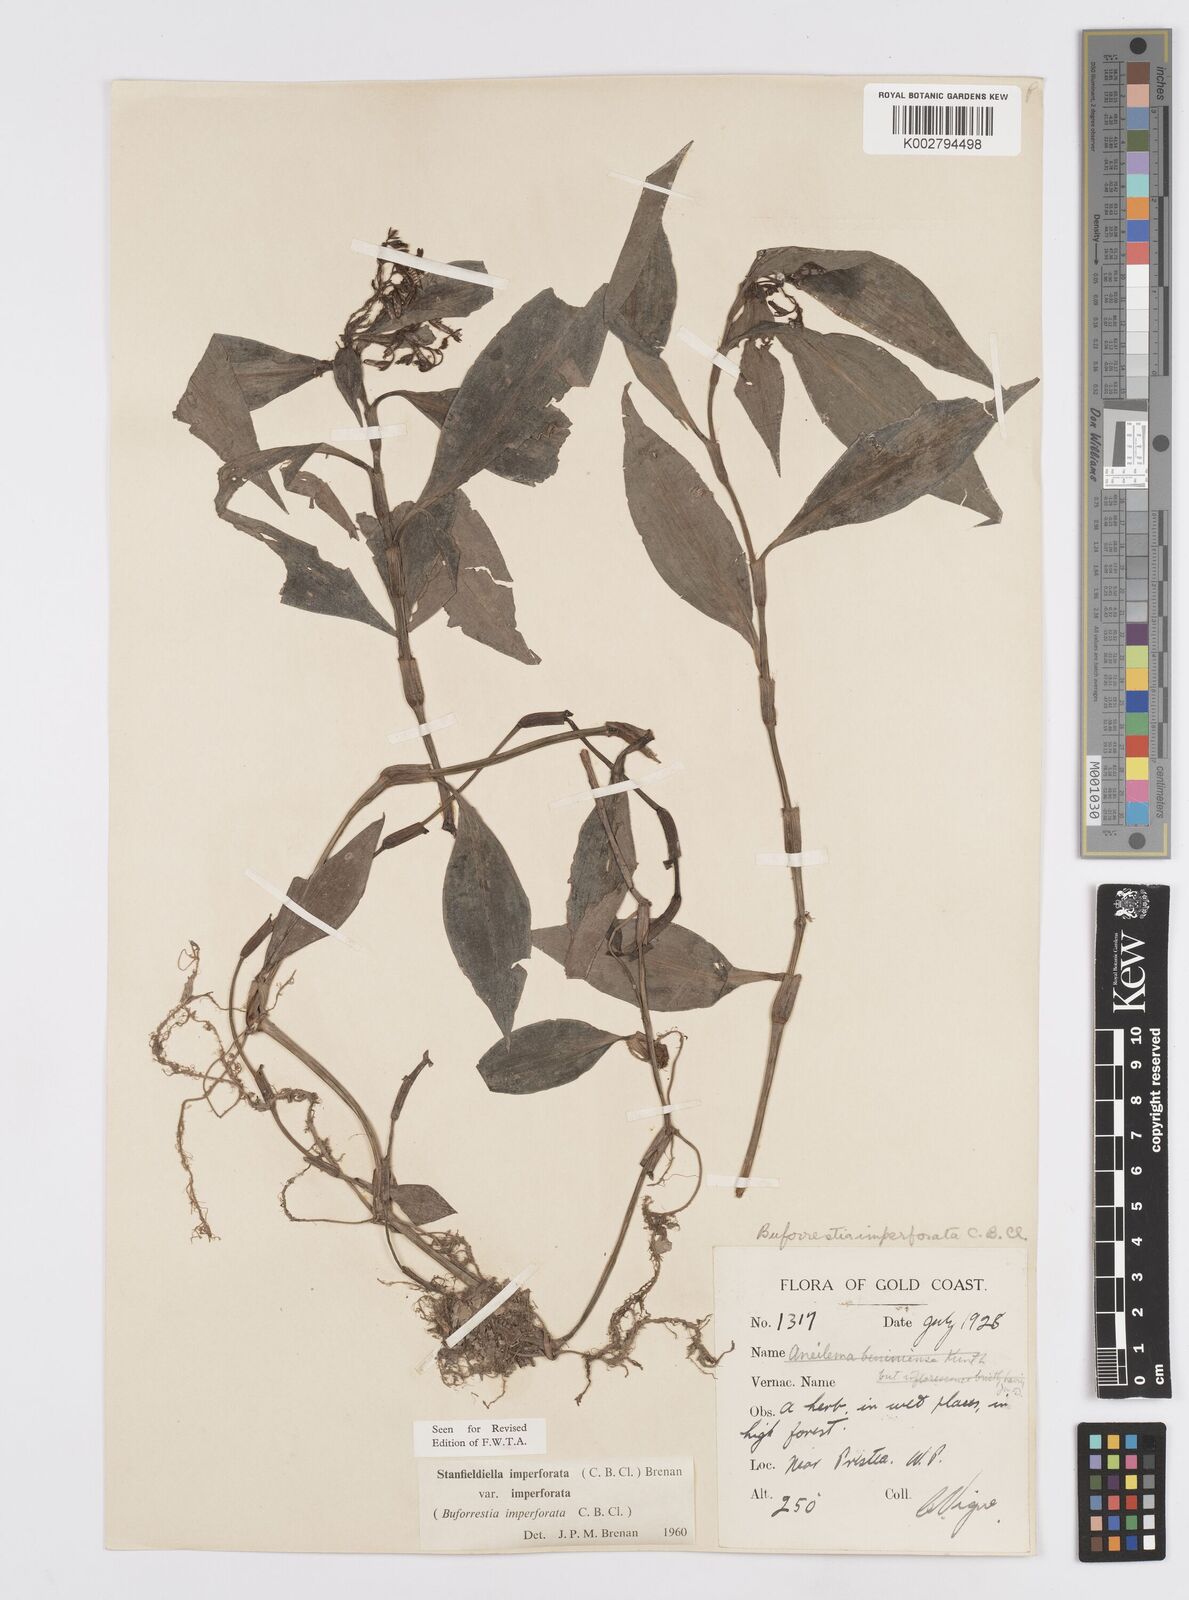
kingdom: Plantae
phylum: Tracheophyta
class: Liliopsida
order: Commelinales
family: Commelinaceae
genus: Stanfieldiella
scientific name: Stanfieldiella imperforata
